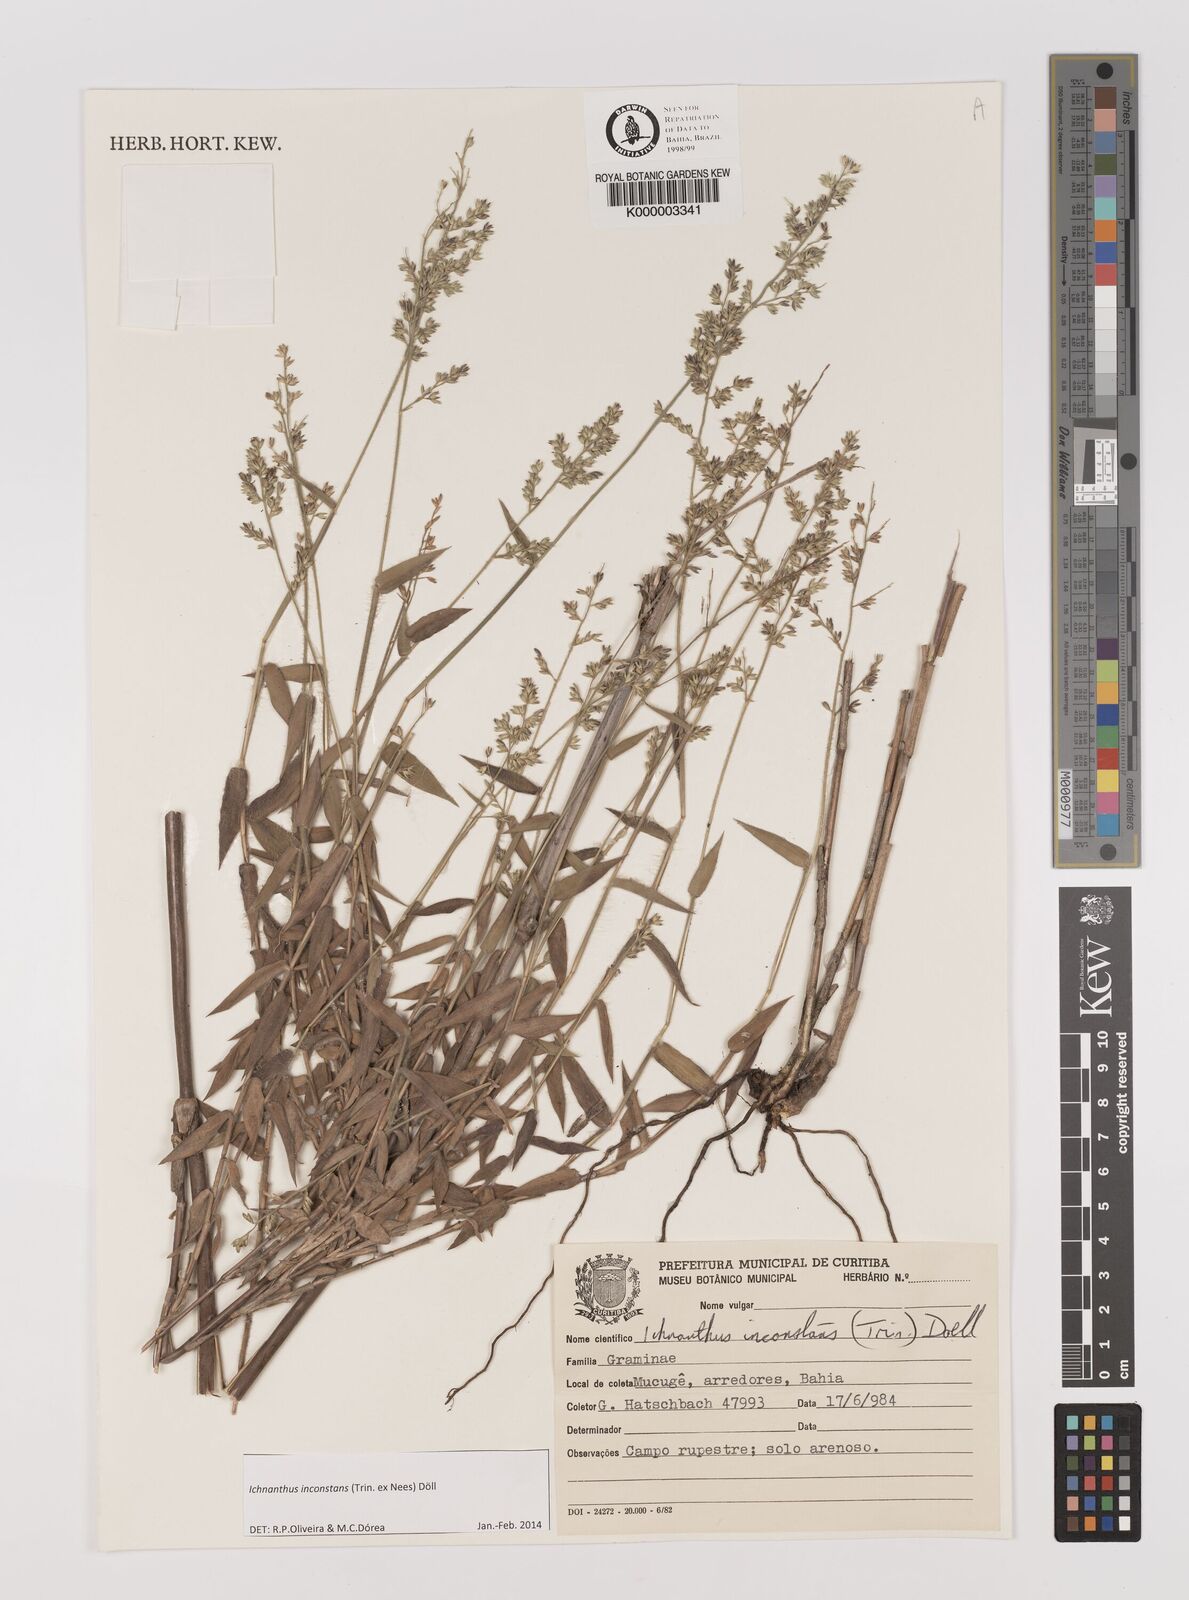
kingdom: Plantae
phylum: Tracheophyta
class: Liliopsida
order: Poales
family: Poaceae
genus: Ichnanthus
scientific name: Ichnanthus
